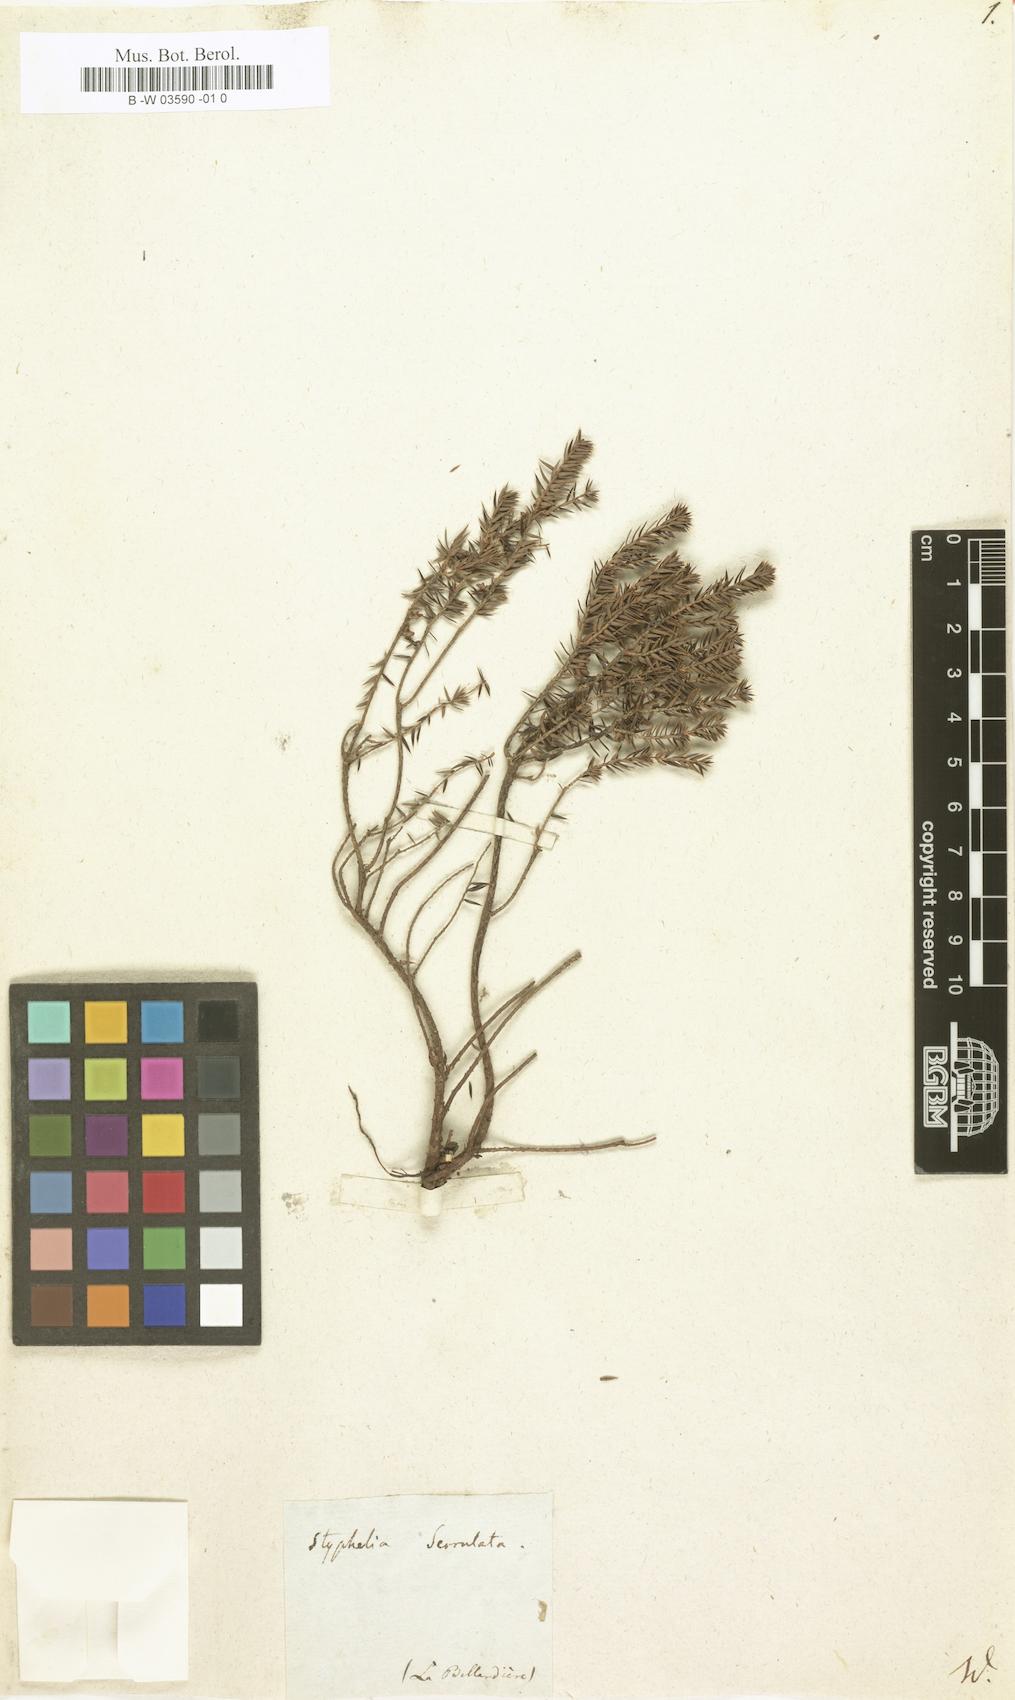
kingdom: Plantae
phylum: Tracheophyta
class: Magnoliopsida
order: Ericales
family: Ericaceae
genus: Acrotriche
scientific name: Acrotriche serrulata
